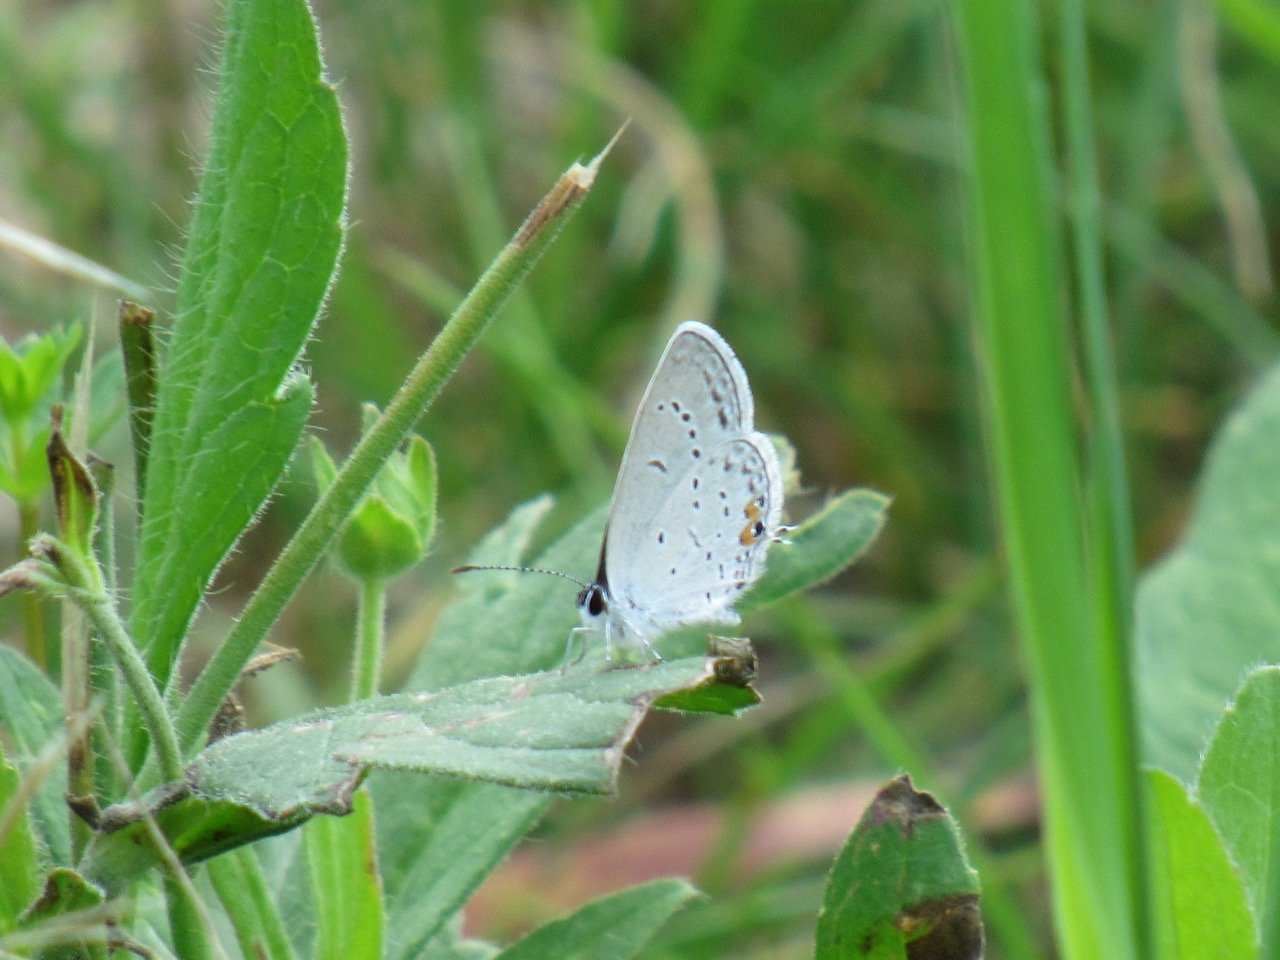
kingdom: Animalia
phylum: Arthropoda
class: Insecta
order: Lepidoptera
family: Lycaenidae
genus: Elkalyce
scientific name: Elkalyce comyntas
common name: Eastern Tailed-Blue
